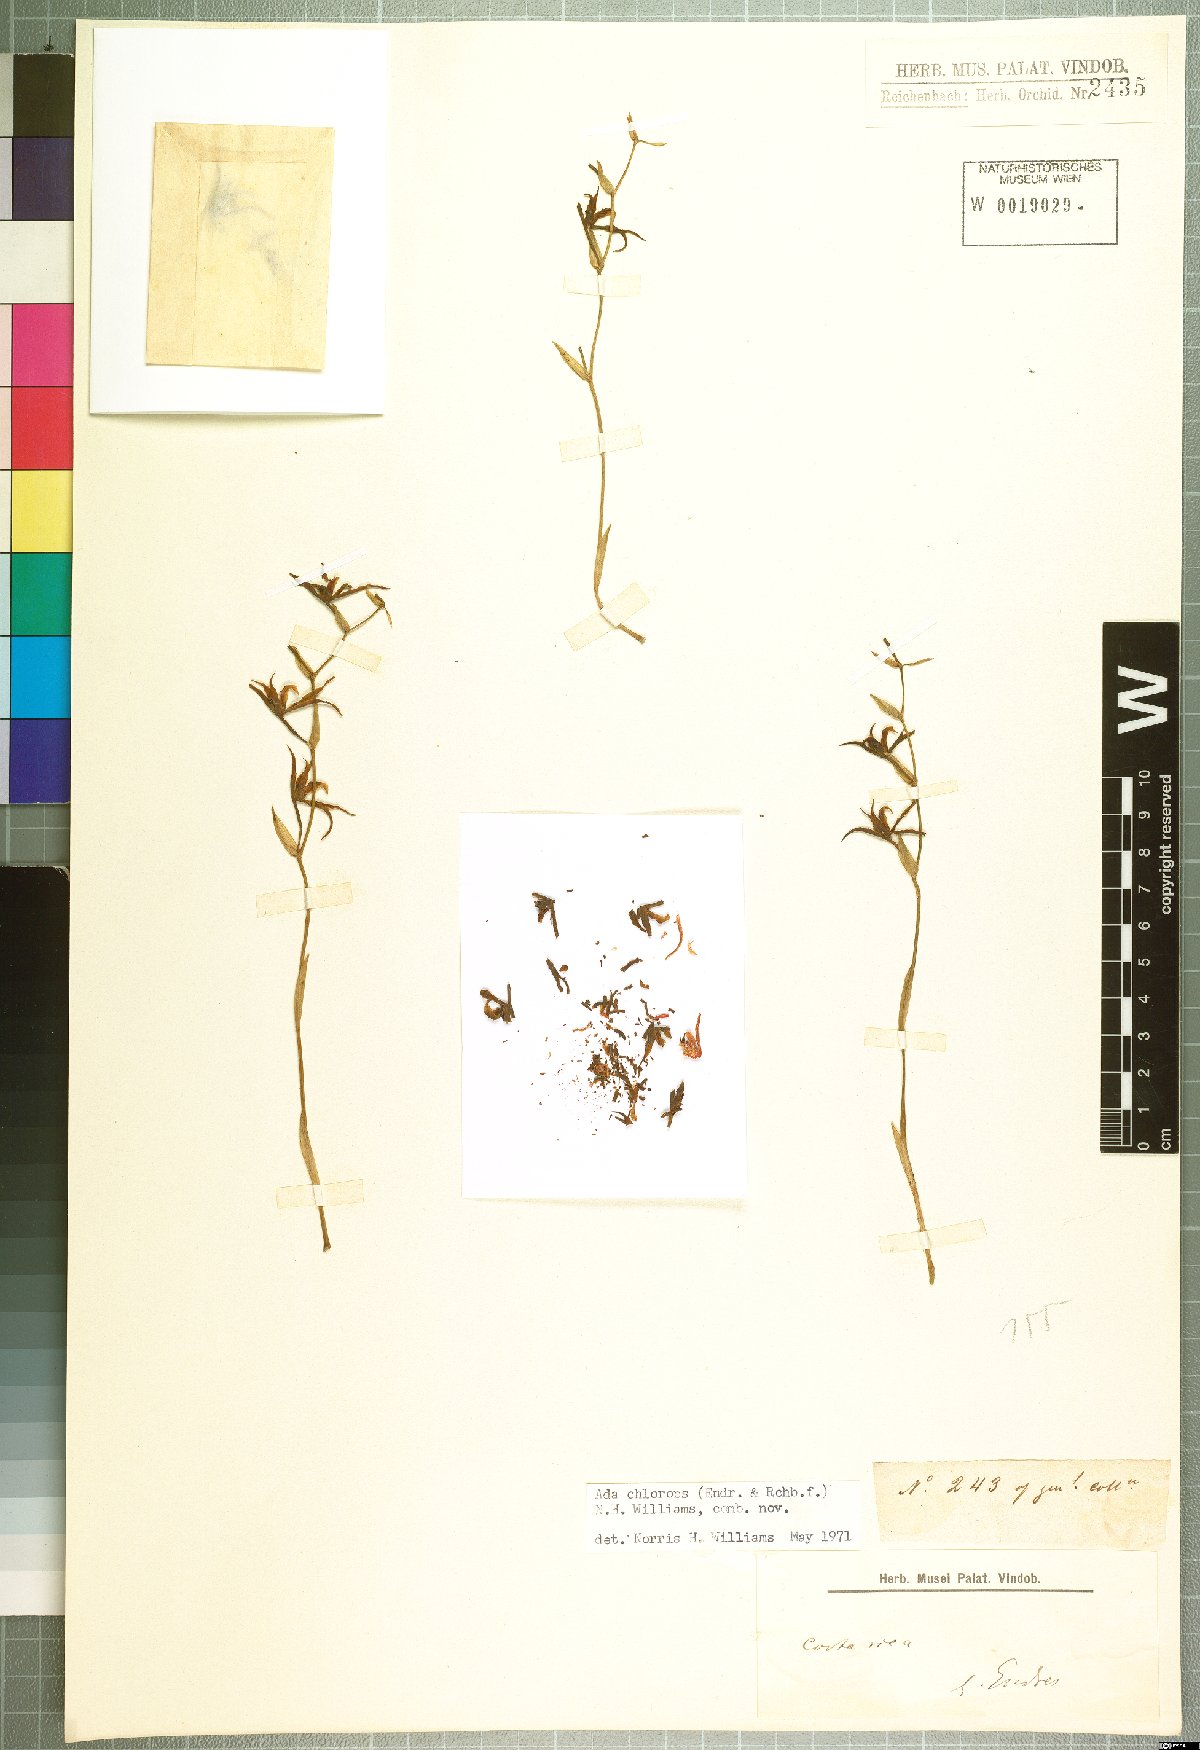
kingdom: Plantae
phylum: Tracheophyta
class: Liliopsida
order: Asparagales
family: Orchidaceae
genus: Brassia
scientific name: Brassia chlorops
